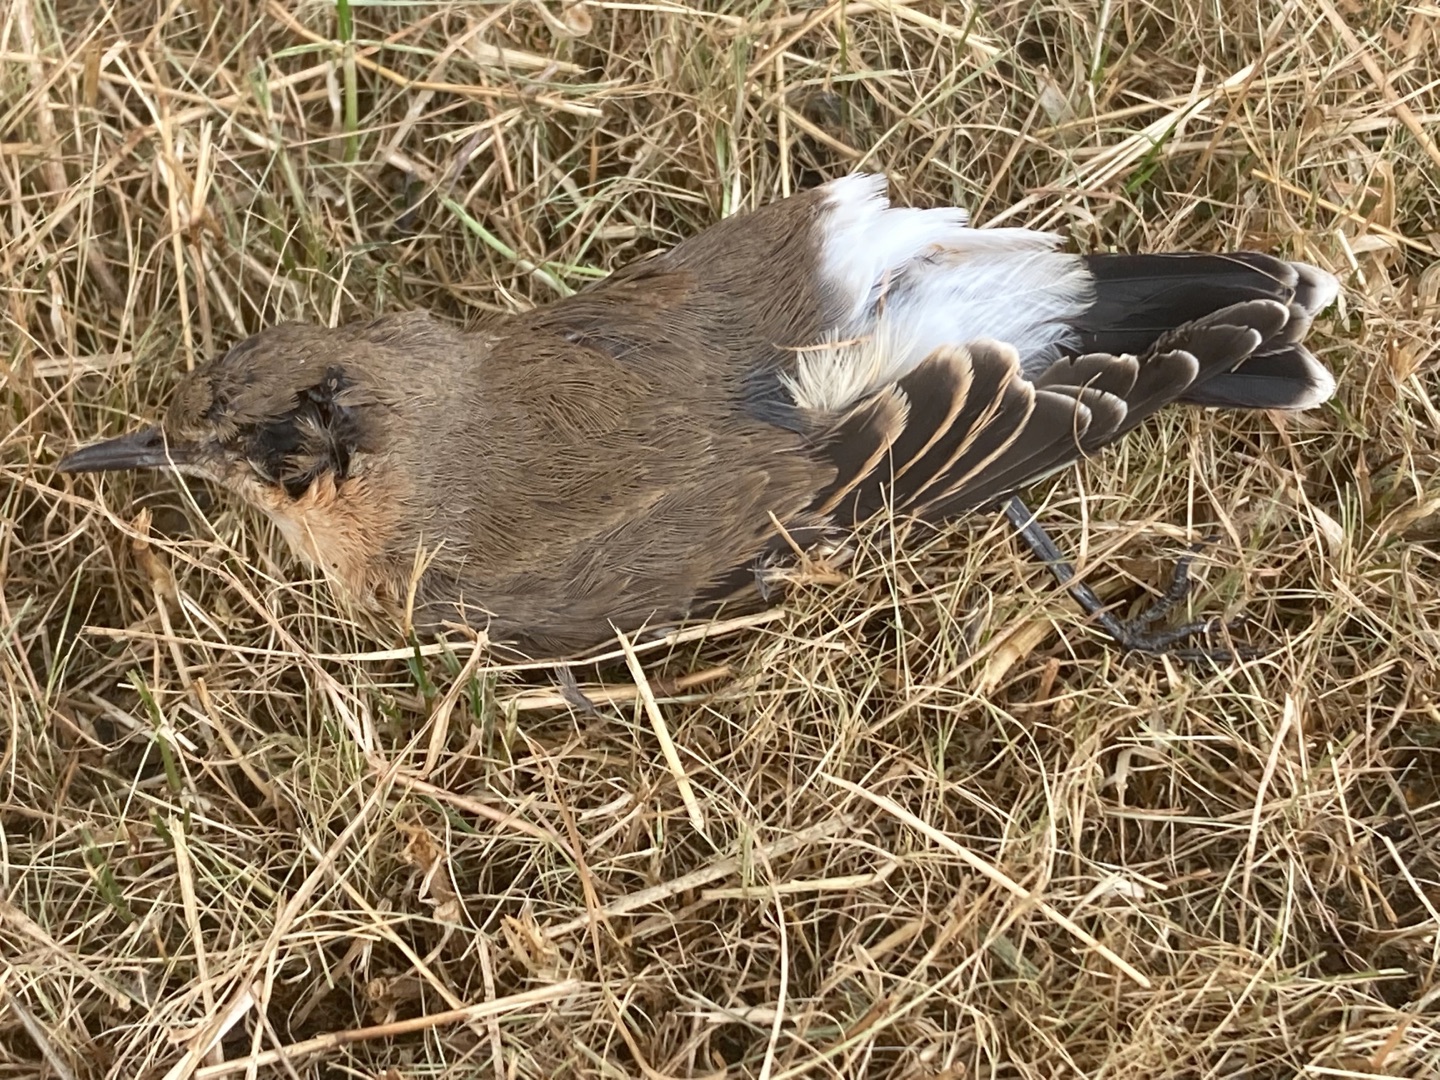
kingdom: Animalia
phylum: Chordata
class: Aves
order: Passeriformes
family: Muscicapidae
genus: Oenanthe
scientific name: Oenanthe oenanthe
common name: Stenpikker
